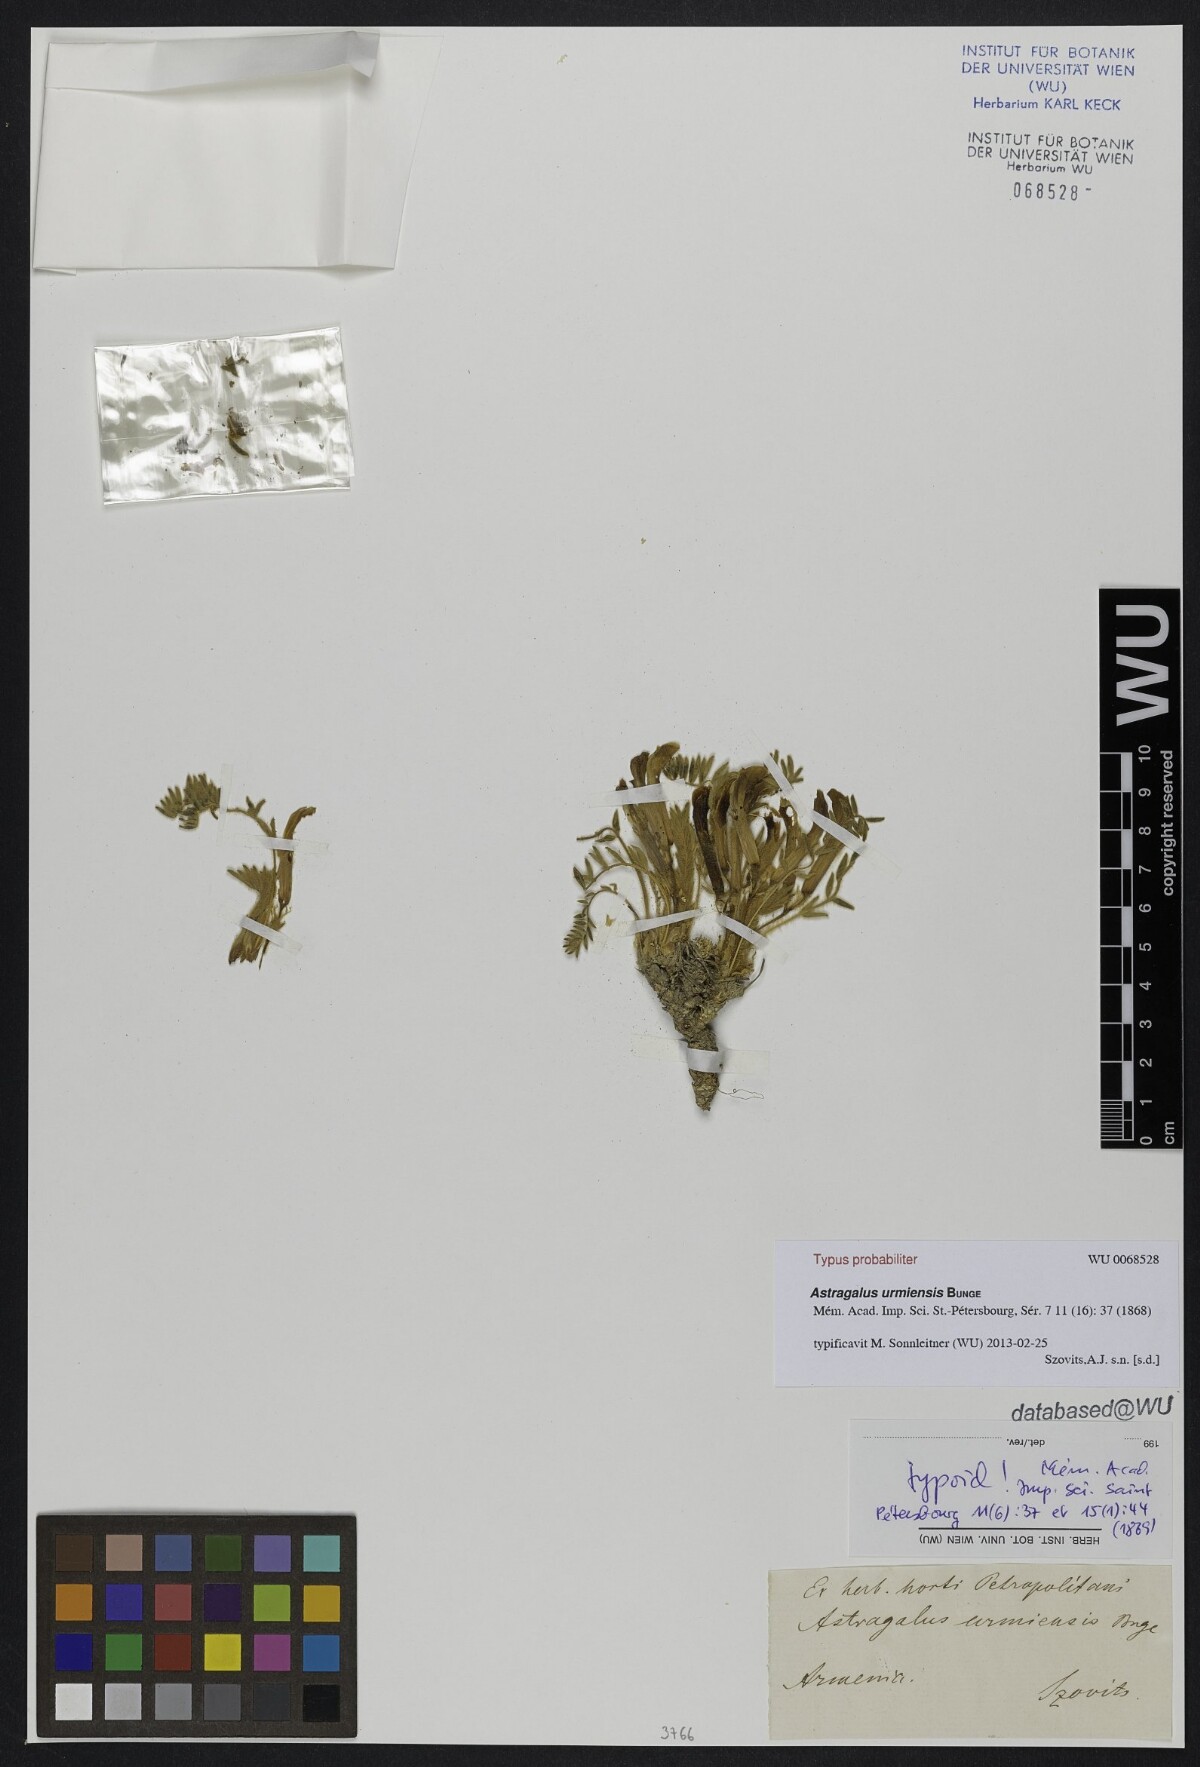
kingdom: Plantae
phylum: Tracheophyta
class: Magnoliopsida
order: Fabales
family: Fabaceae
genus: Astragalus
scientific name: Astragalus urmiensis
